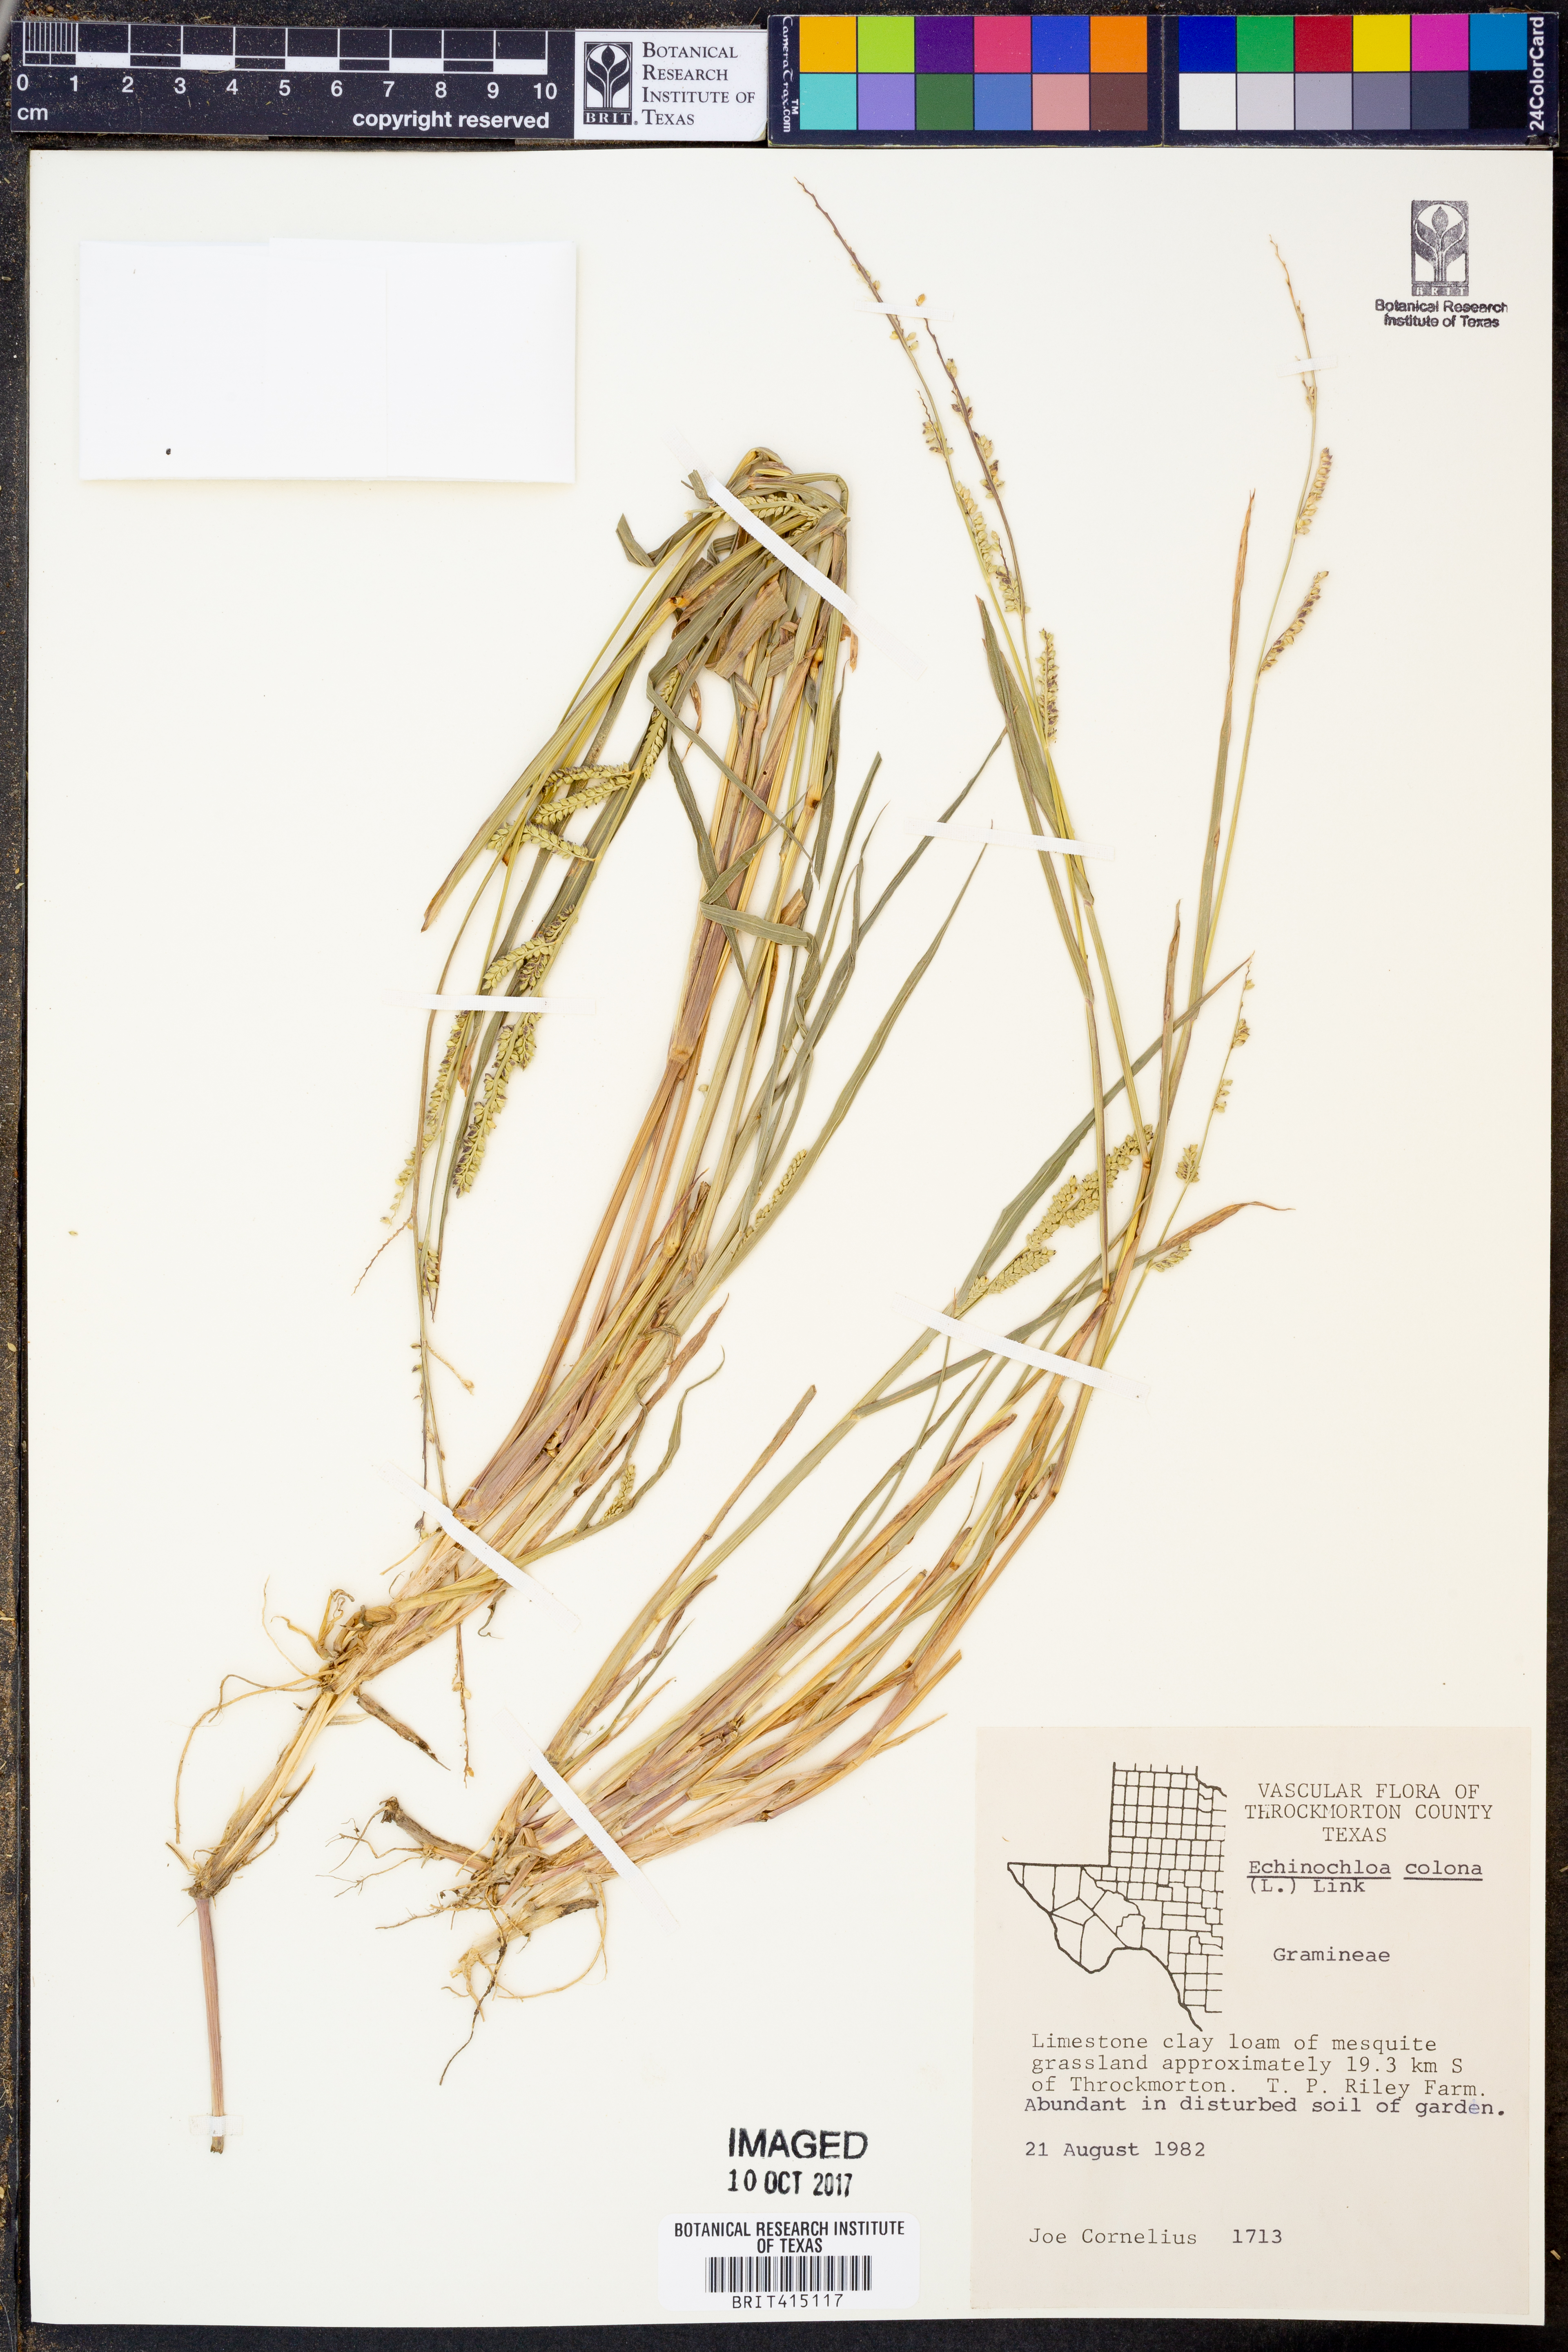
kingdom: Plantae
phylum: Tracheophyta
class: Liliopsida
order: Poales
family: Poaceae
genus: Echinochloa
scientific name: Echinochloa colonum
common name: Jungle rice
